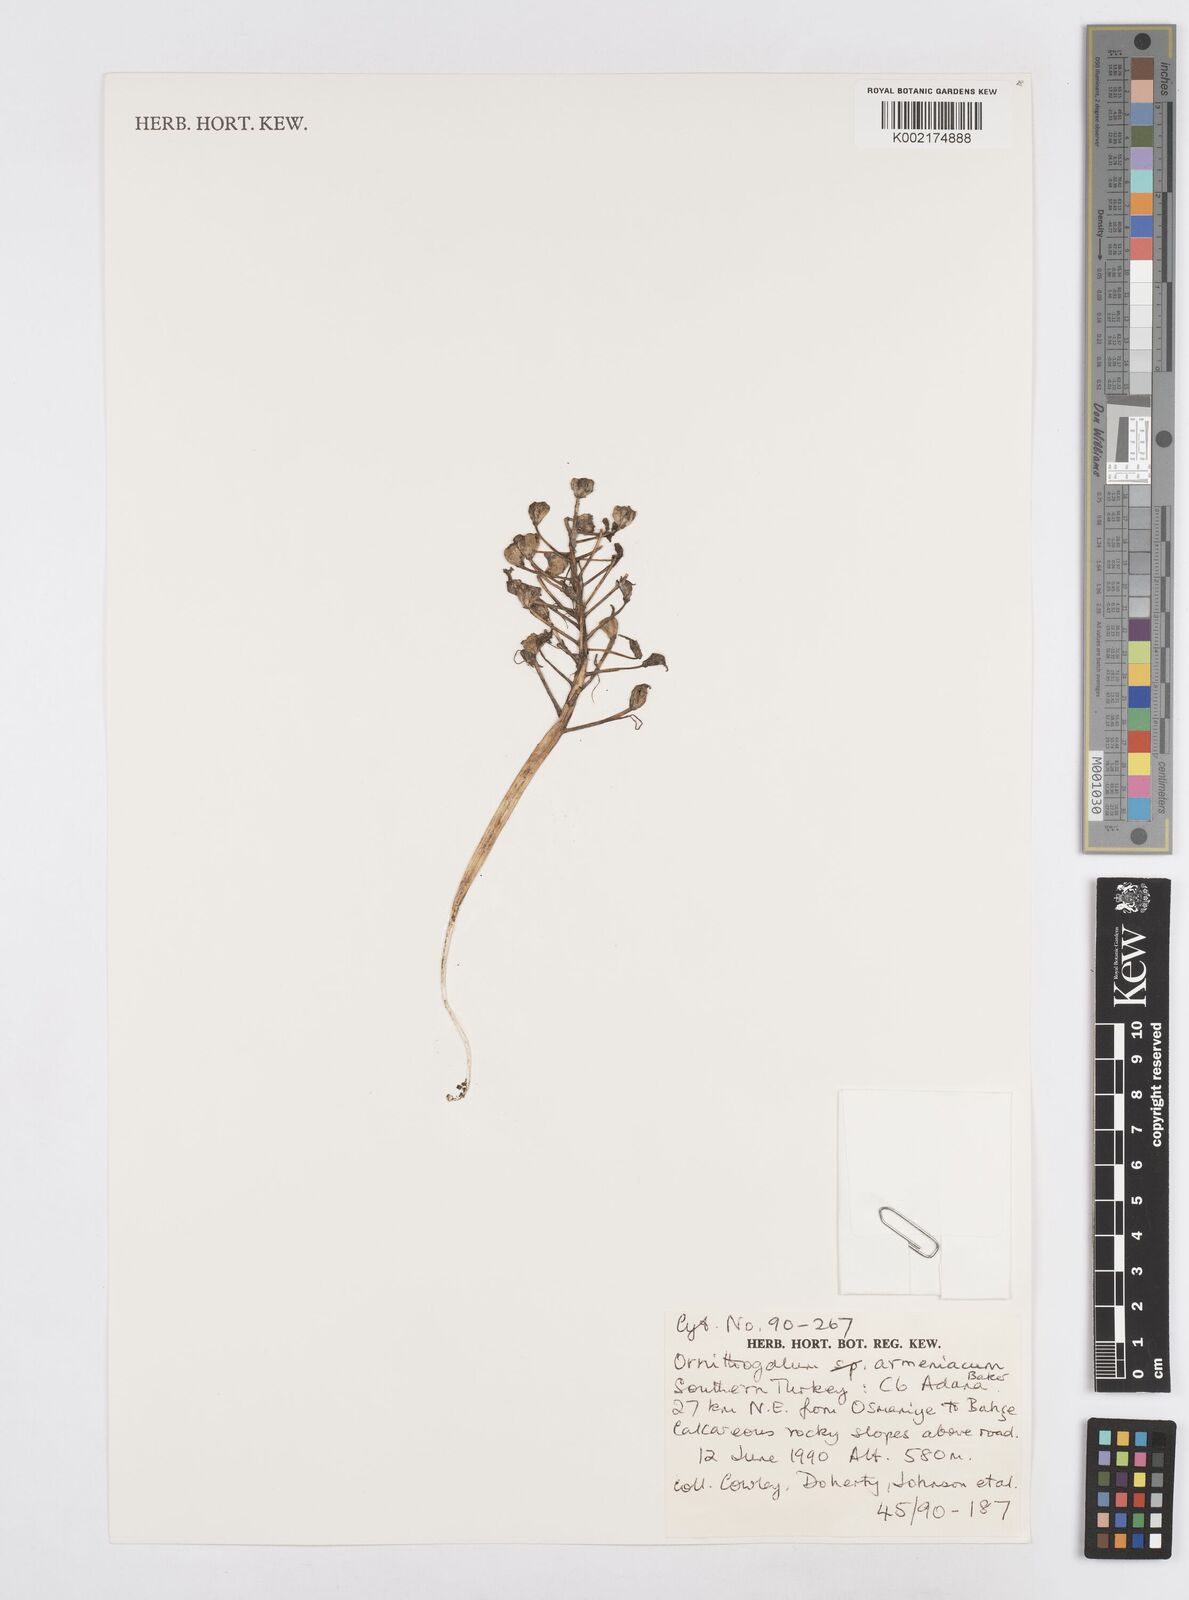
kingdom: Plantae
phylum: Tracheophyta
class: Liliopsida
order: Asparagales
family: Asparagaceae
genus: Ornithogalum
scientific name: Ornithogalum armeniacum
